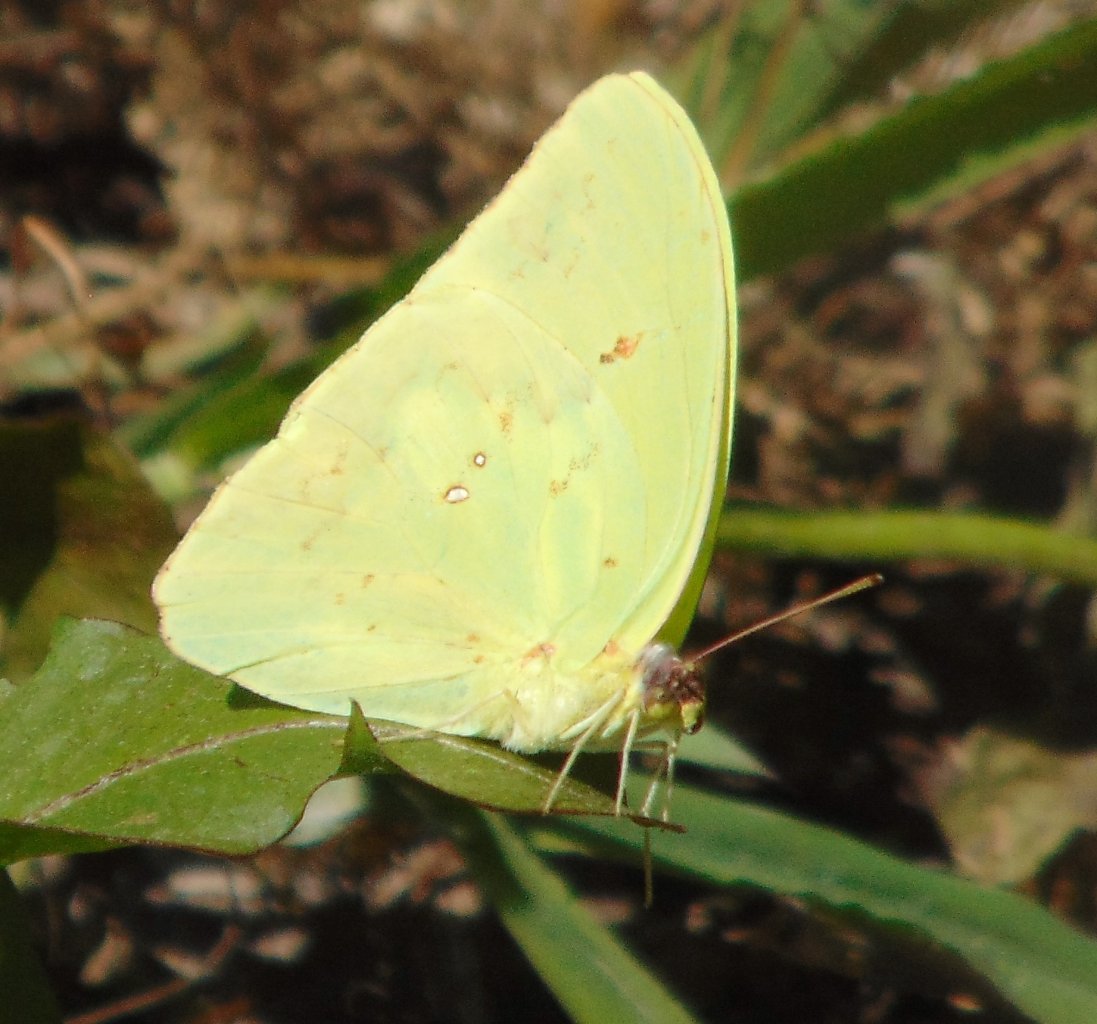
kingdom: Animalia
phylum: Arthropoda
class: Insecta
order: Lepidoptera
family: Pieridae
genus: Phoebis
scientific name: Phoebis sennae
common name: Cloudless Sulphur
